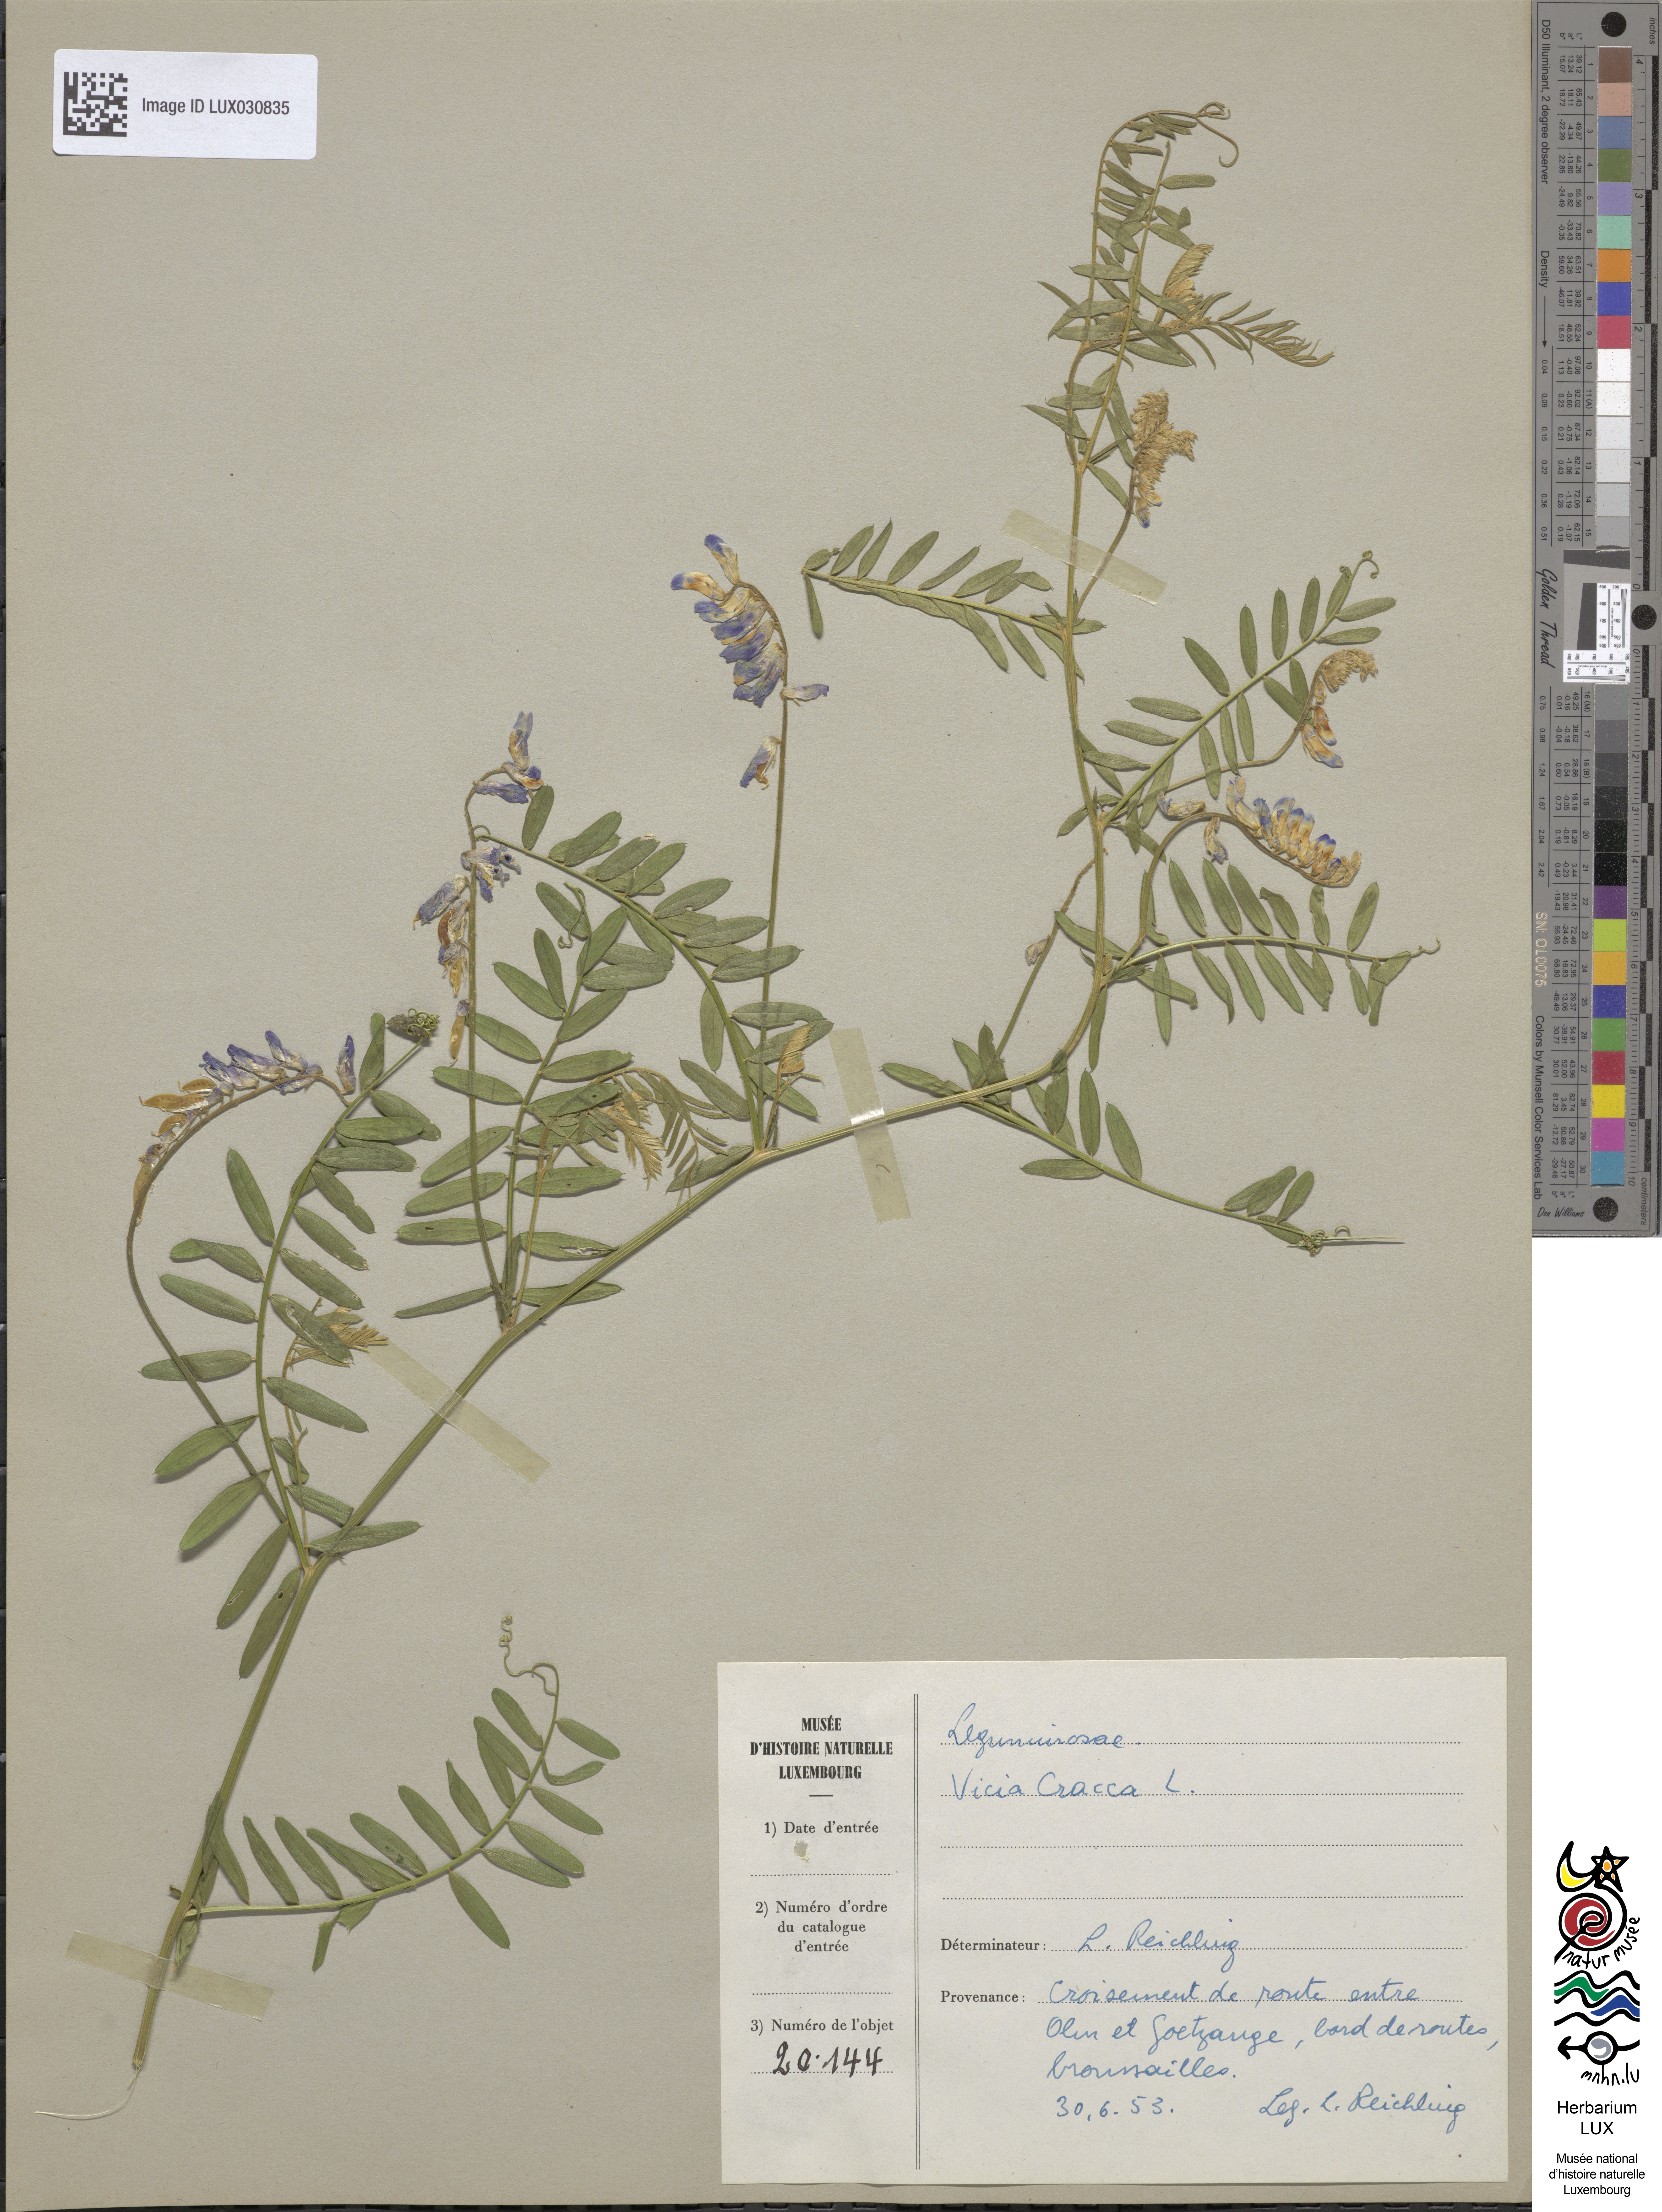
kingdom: Plantae
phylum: Tracheophyta
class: Magnoliopsida
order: Fabales
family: Fabaceae
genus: Vicia
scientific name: Vicia cracca
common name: Bird vetch
